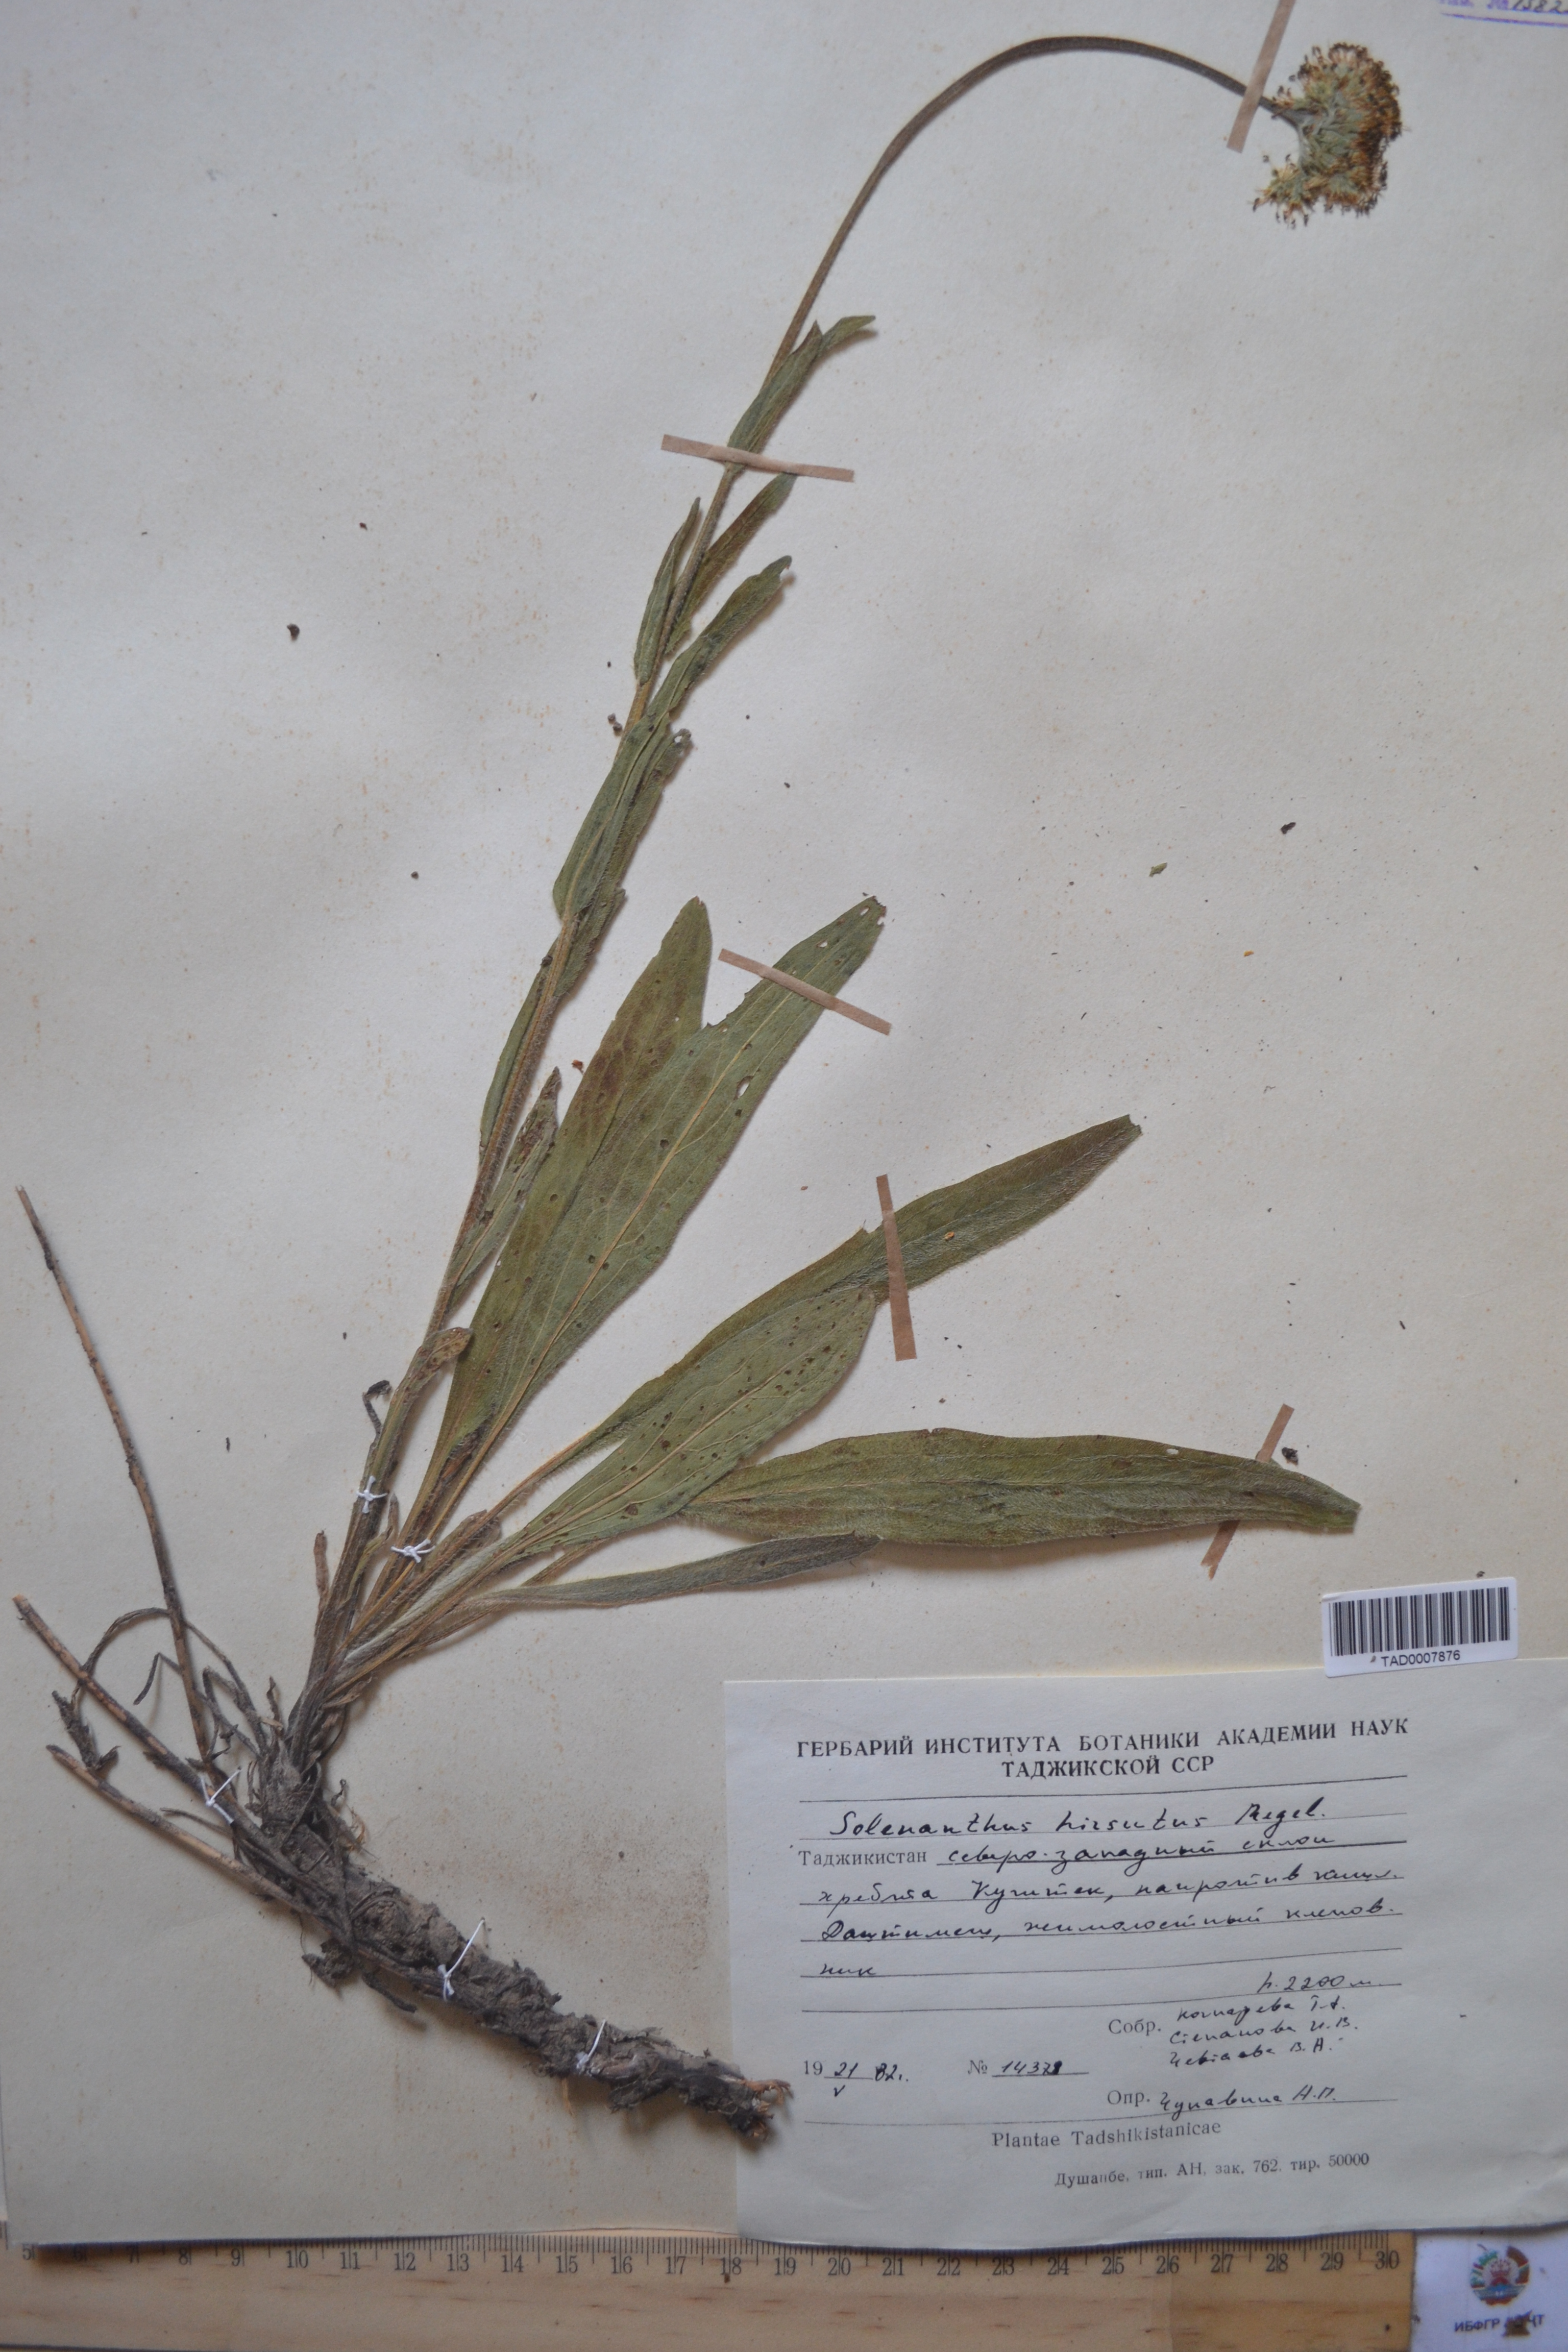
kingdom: Plantae
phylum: Tracheophyta
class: Magnoliopsida
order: Boraginales
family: Boraginaceae
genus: Solenanthus
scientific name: Solenanthus hirsutus
